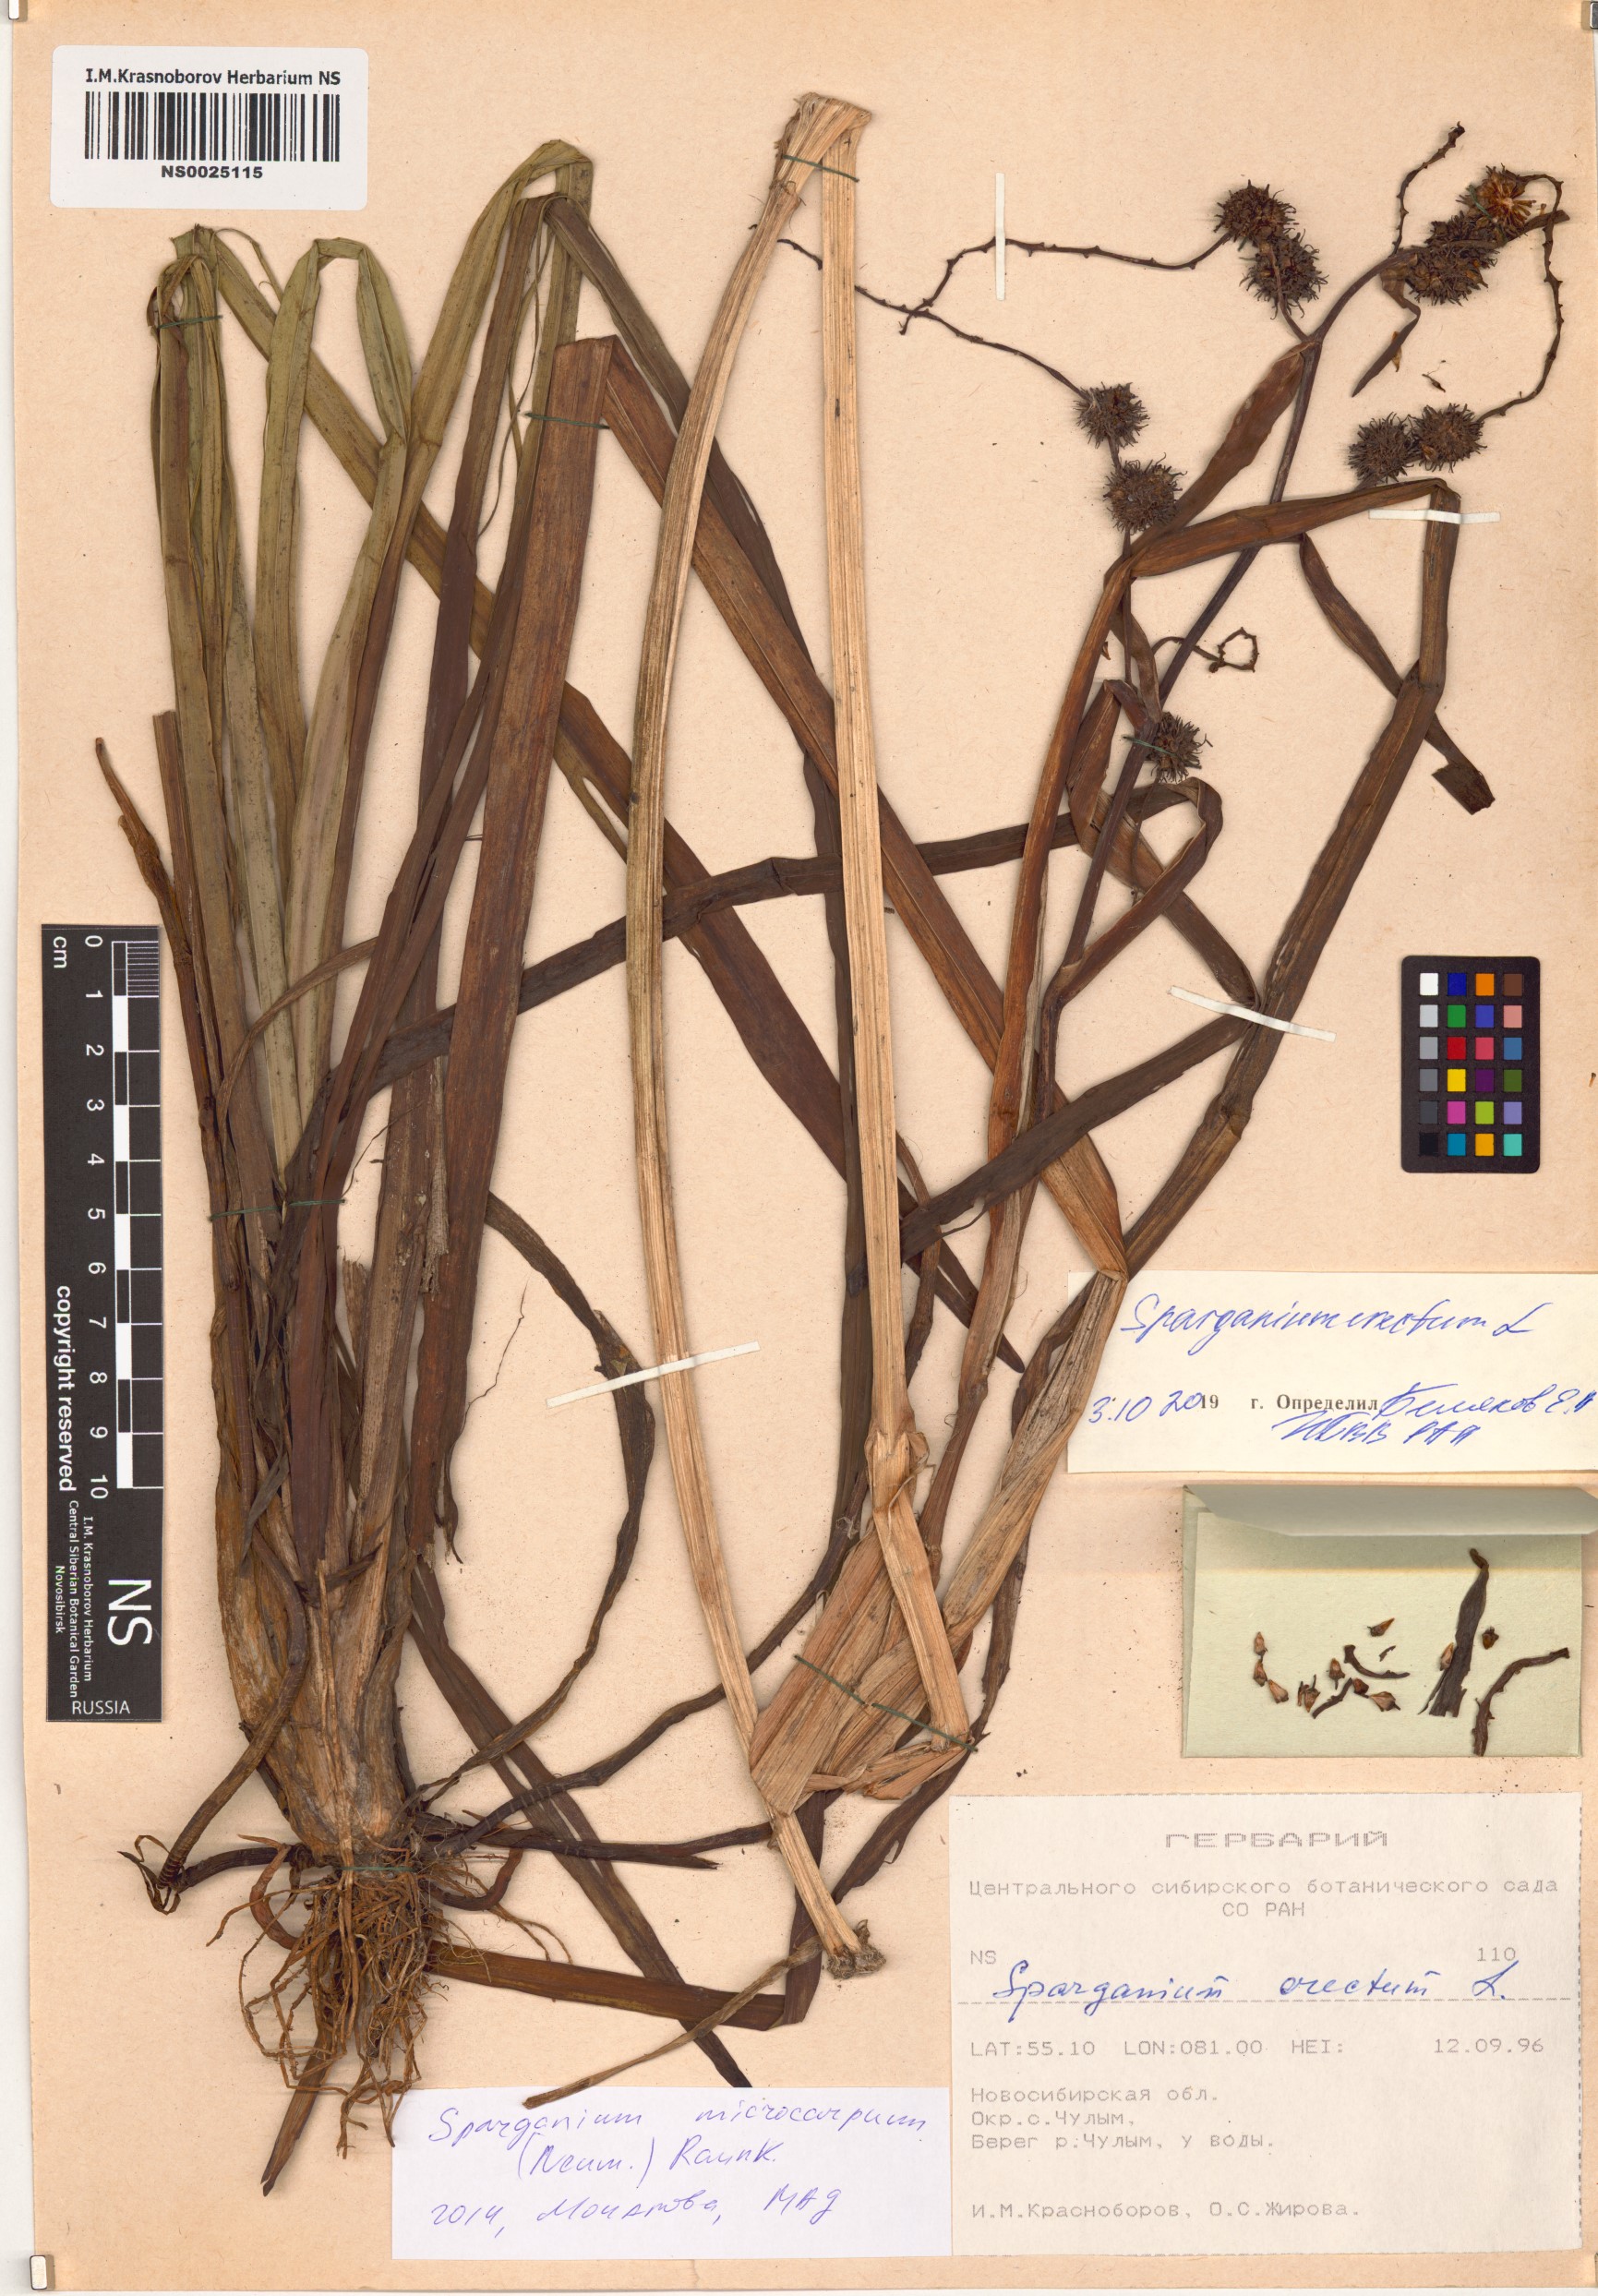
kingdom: Plantae
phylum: Tracheophyta
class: Liliopsida
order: Poales
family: Typhaceae
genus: Sparganium
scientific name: Sparganium erectum
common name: Branched bur-reed
